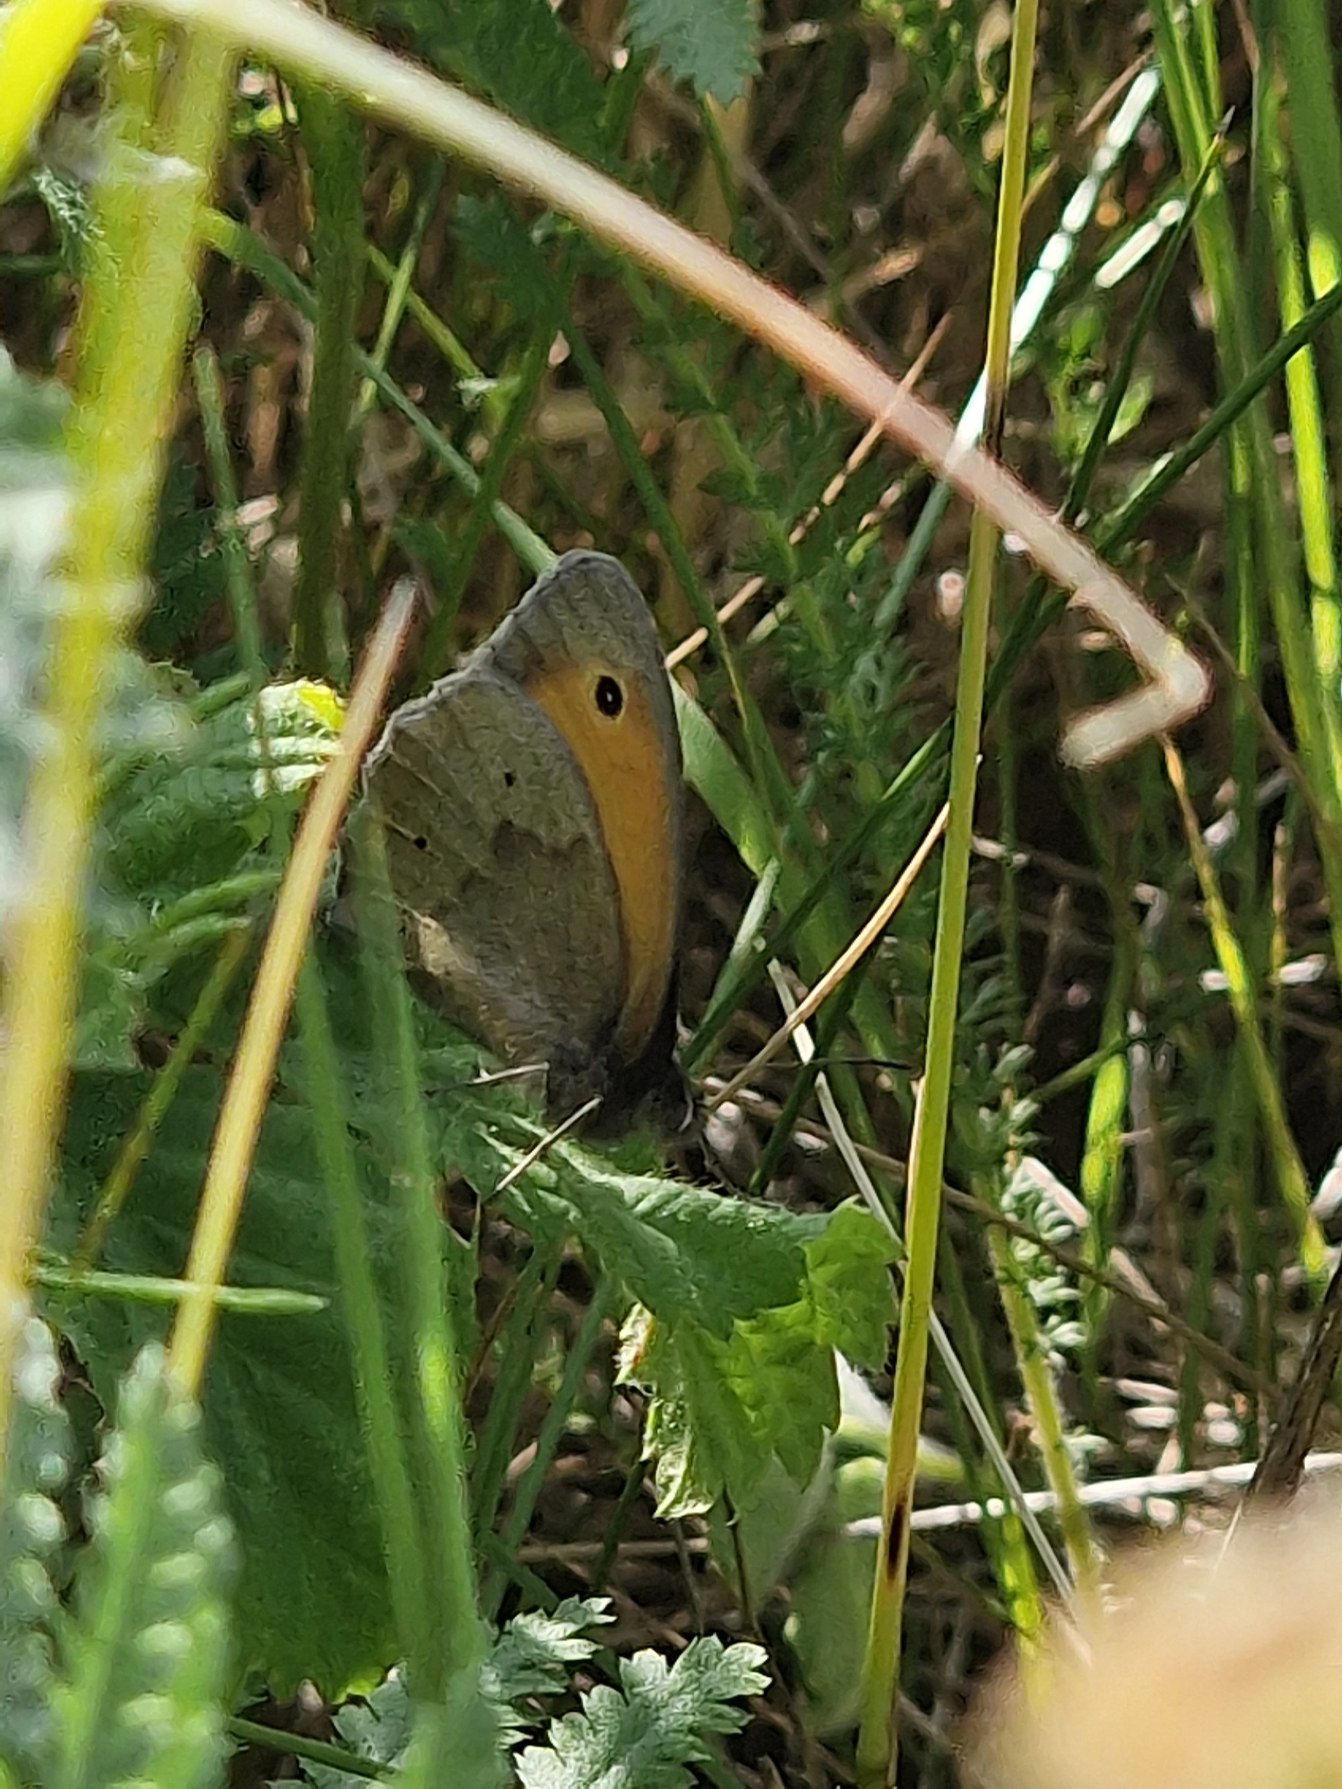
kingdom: Animalia
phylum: Arthropoda
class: Insecta
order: Lepidoptera
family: Nymphalidae
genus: Maniola
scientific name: Maniola jurtina
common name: Græsrandøje
